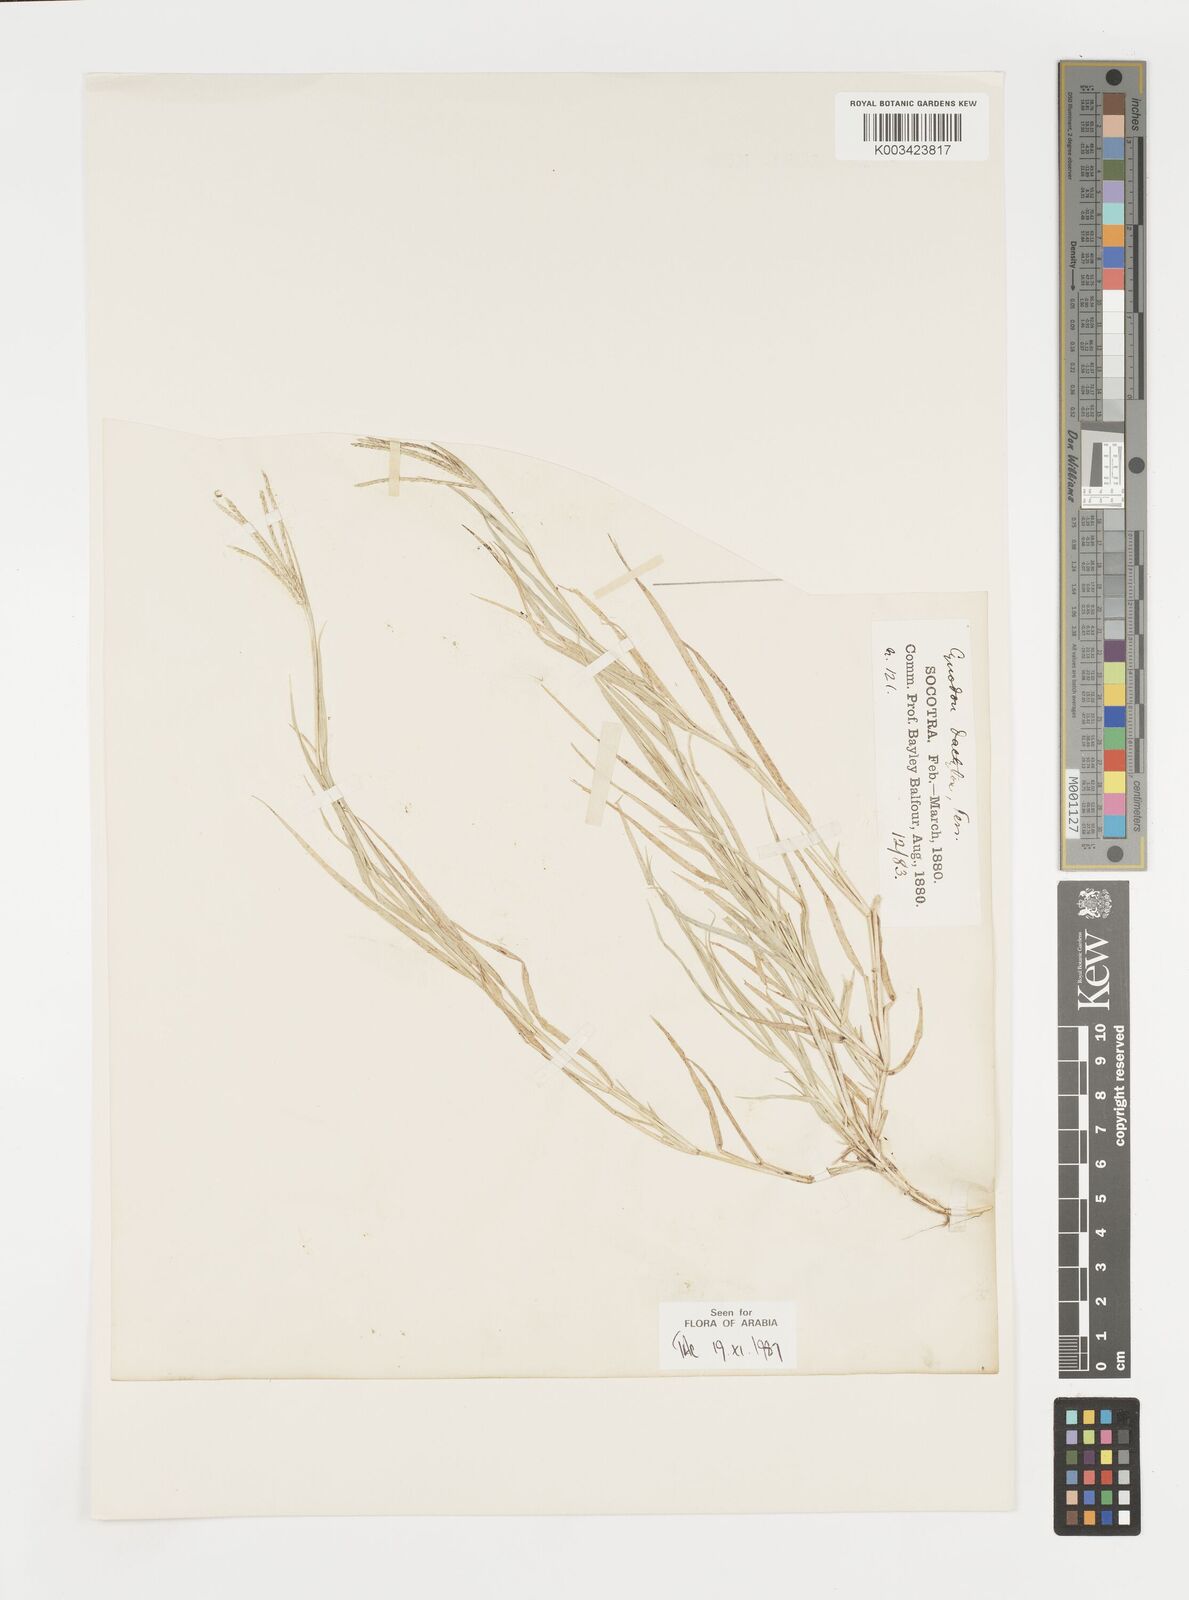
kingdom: Plantae
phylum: Tracheophyta
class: Liliopsida
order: Poales
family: Poaceae
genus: Cynodon
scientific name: Cynodon dactylon
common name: Bermuda grass
